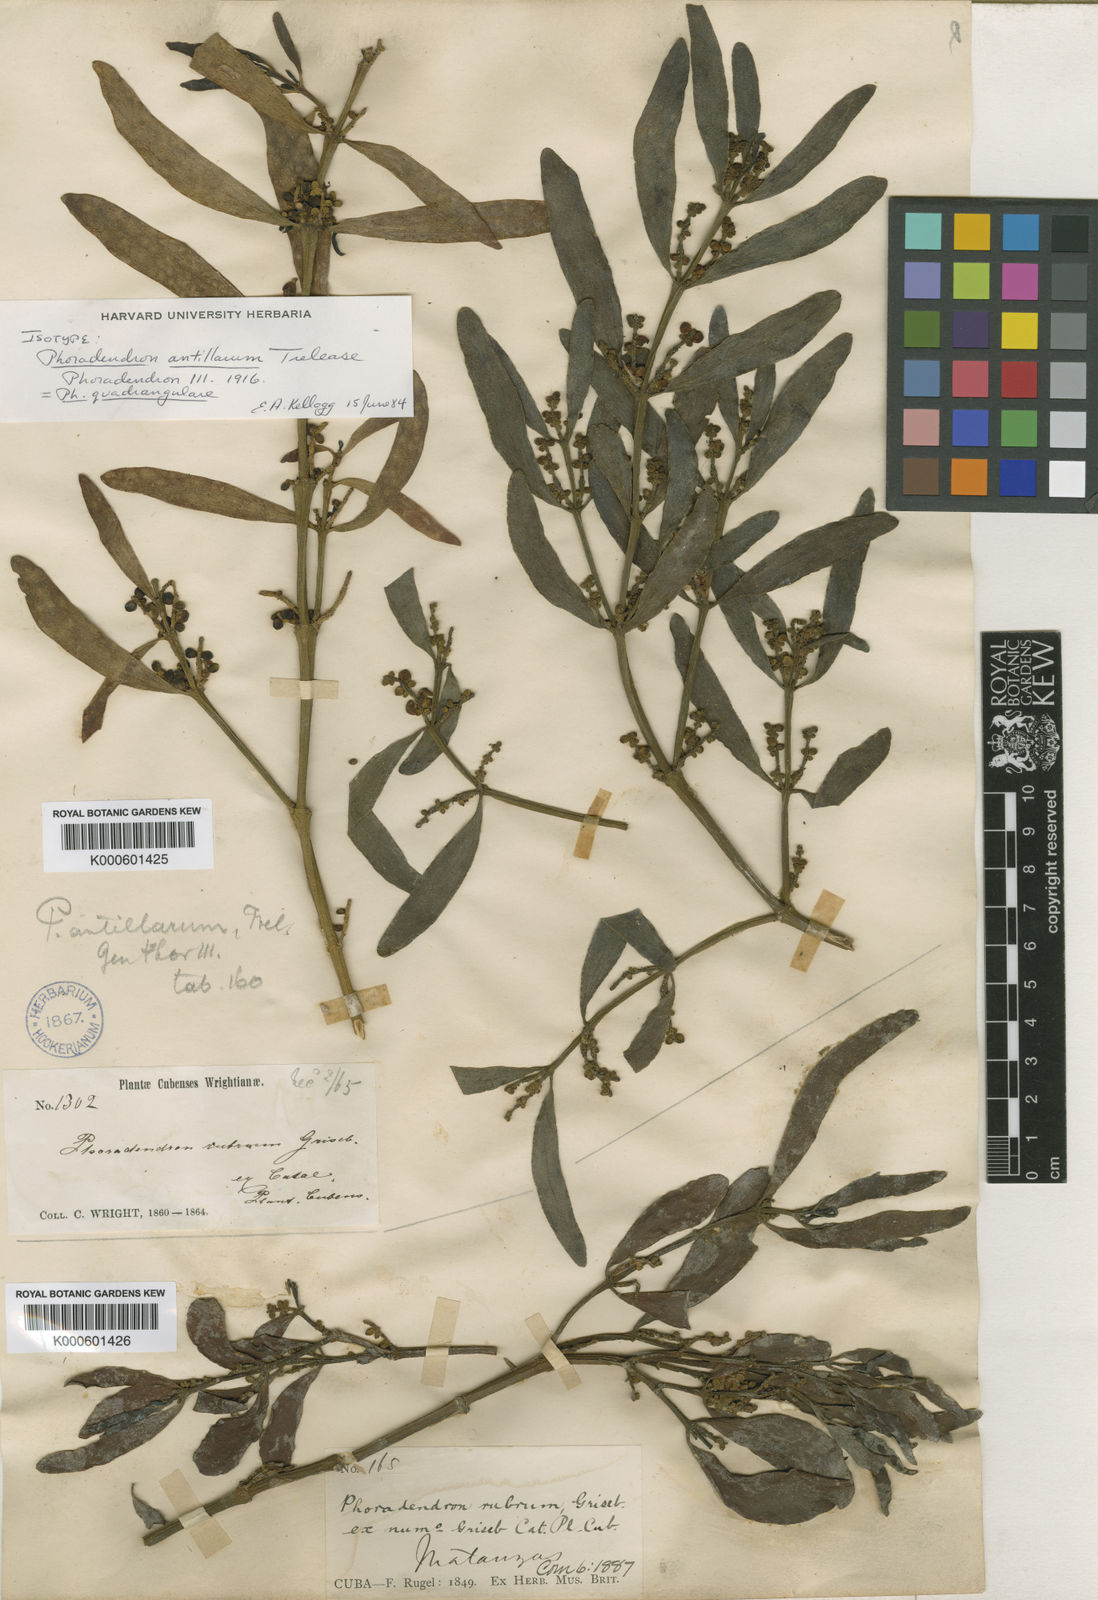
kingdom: Plantae
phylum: Tracheophyta
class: Magnoliopsida
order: Santalales
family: Viscaceae
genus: Phoradendron
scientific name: Phoradendron quadrangulare
